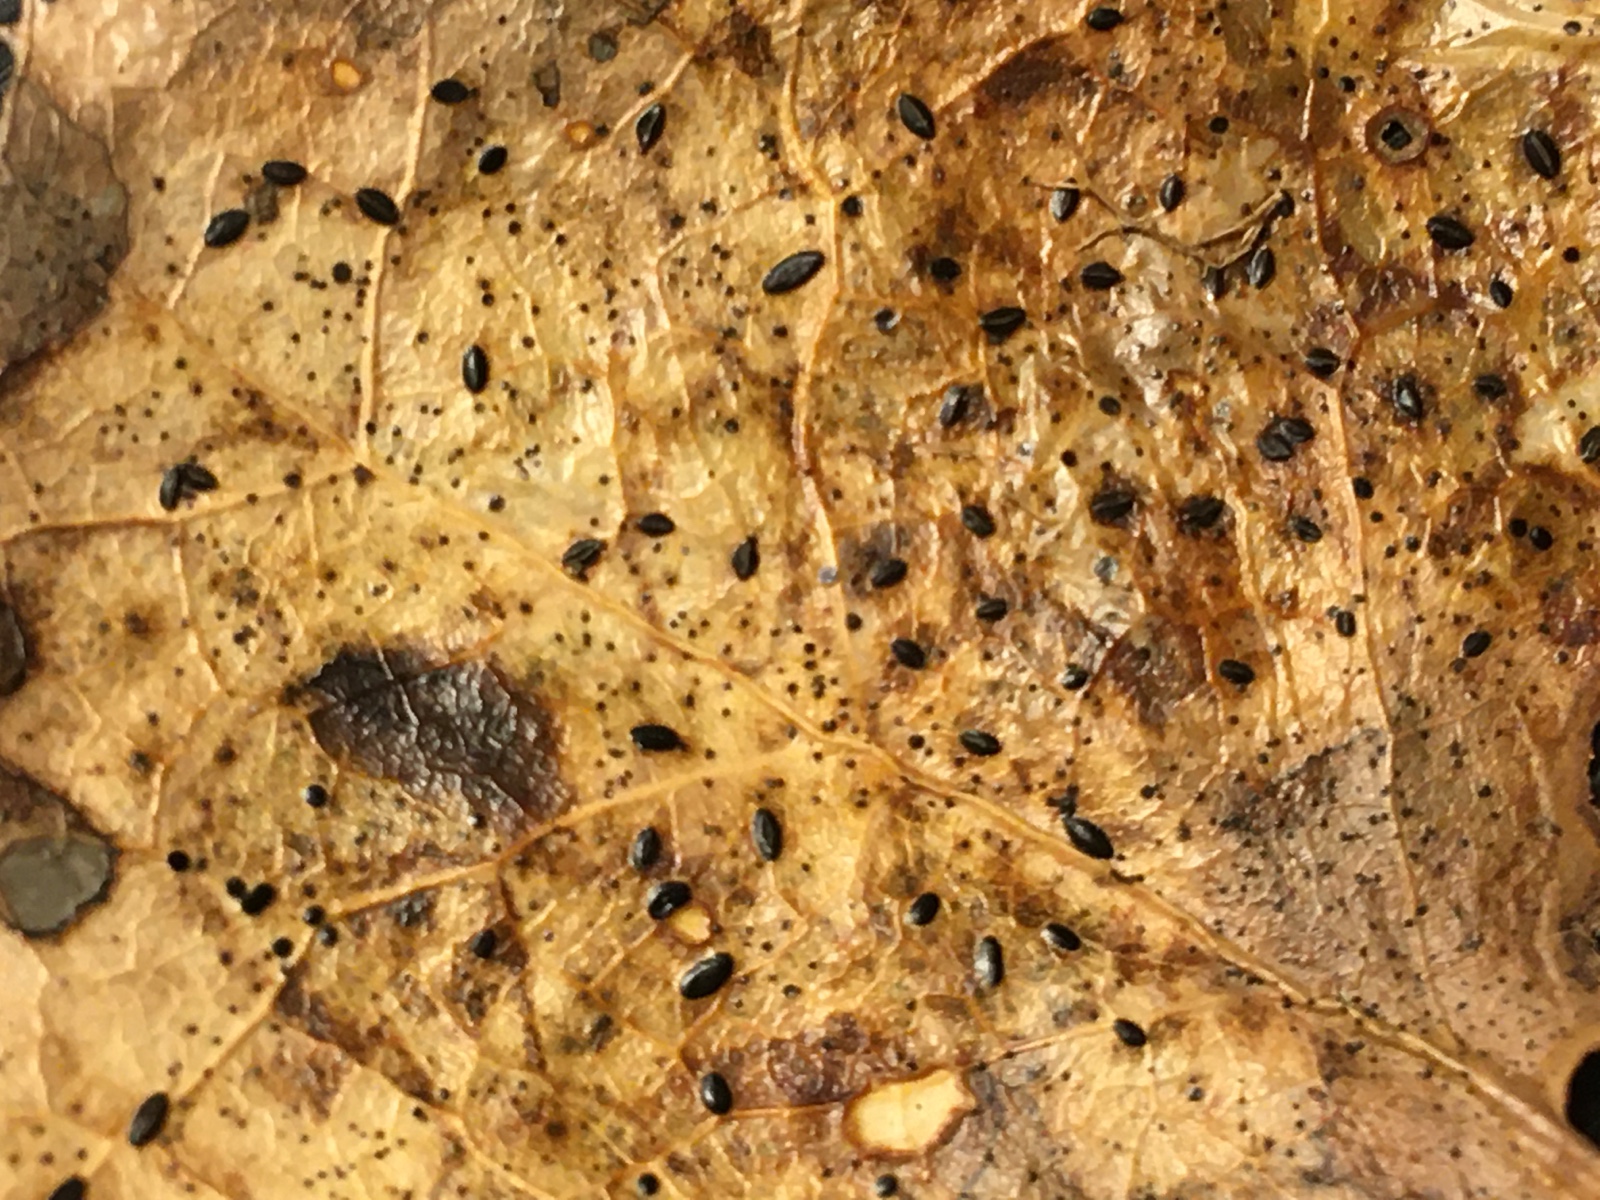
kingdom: Fungi
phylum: Ascomycota
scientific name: Ascomycota
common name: sæksvampe
